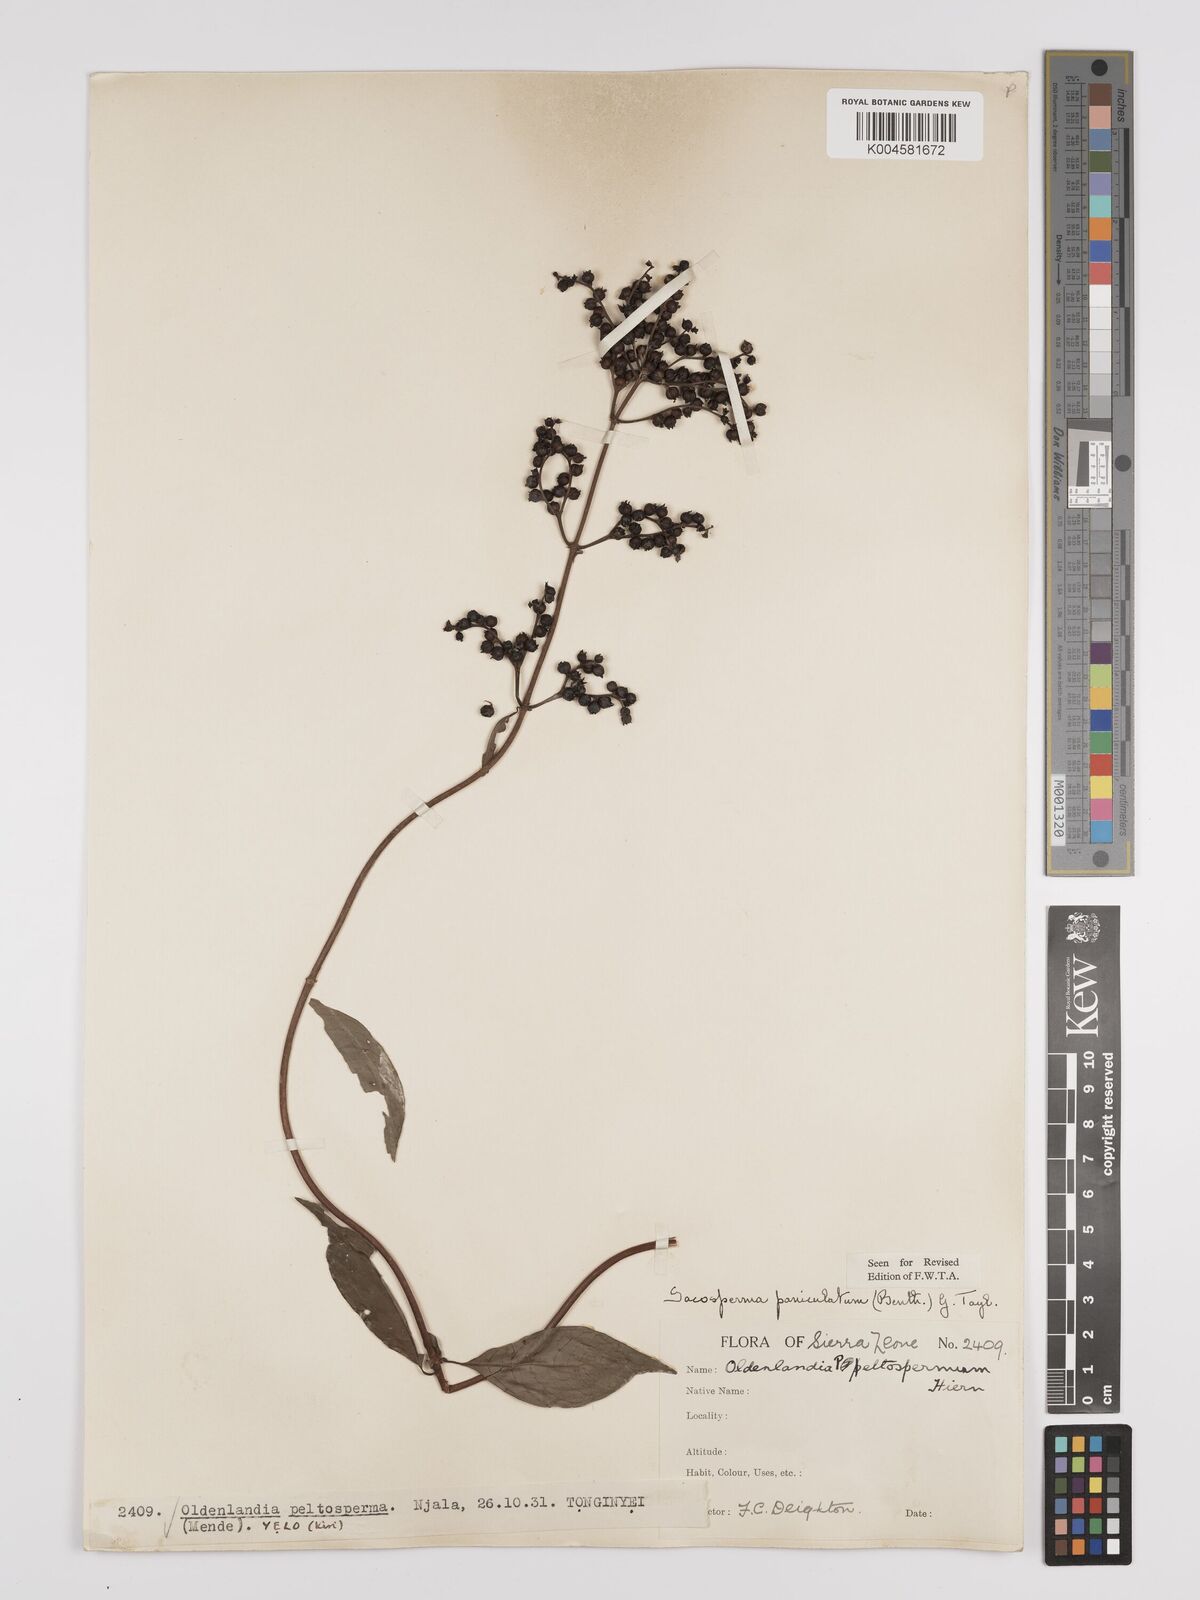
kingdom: Plantae
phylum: Tracheophyta
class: Magnoliopsida
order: Gentianales
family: Rubiaceae
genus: Sacosperma
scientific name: Sacosperma paniculatum
